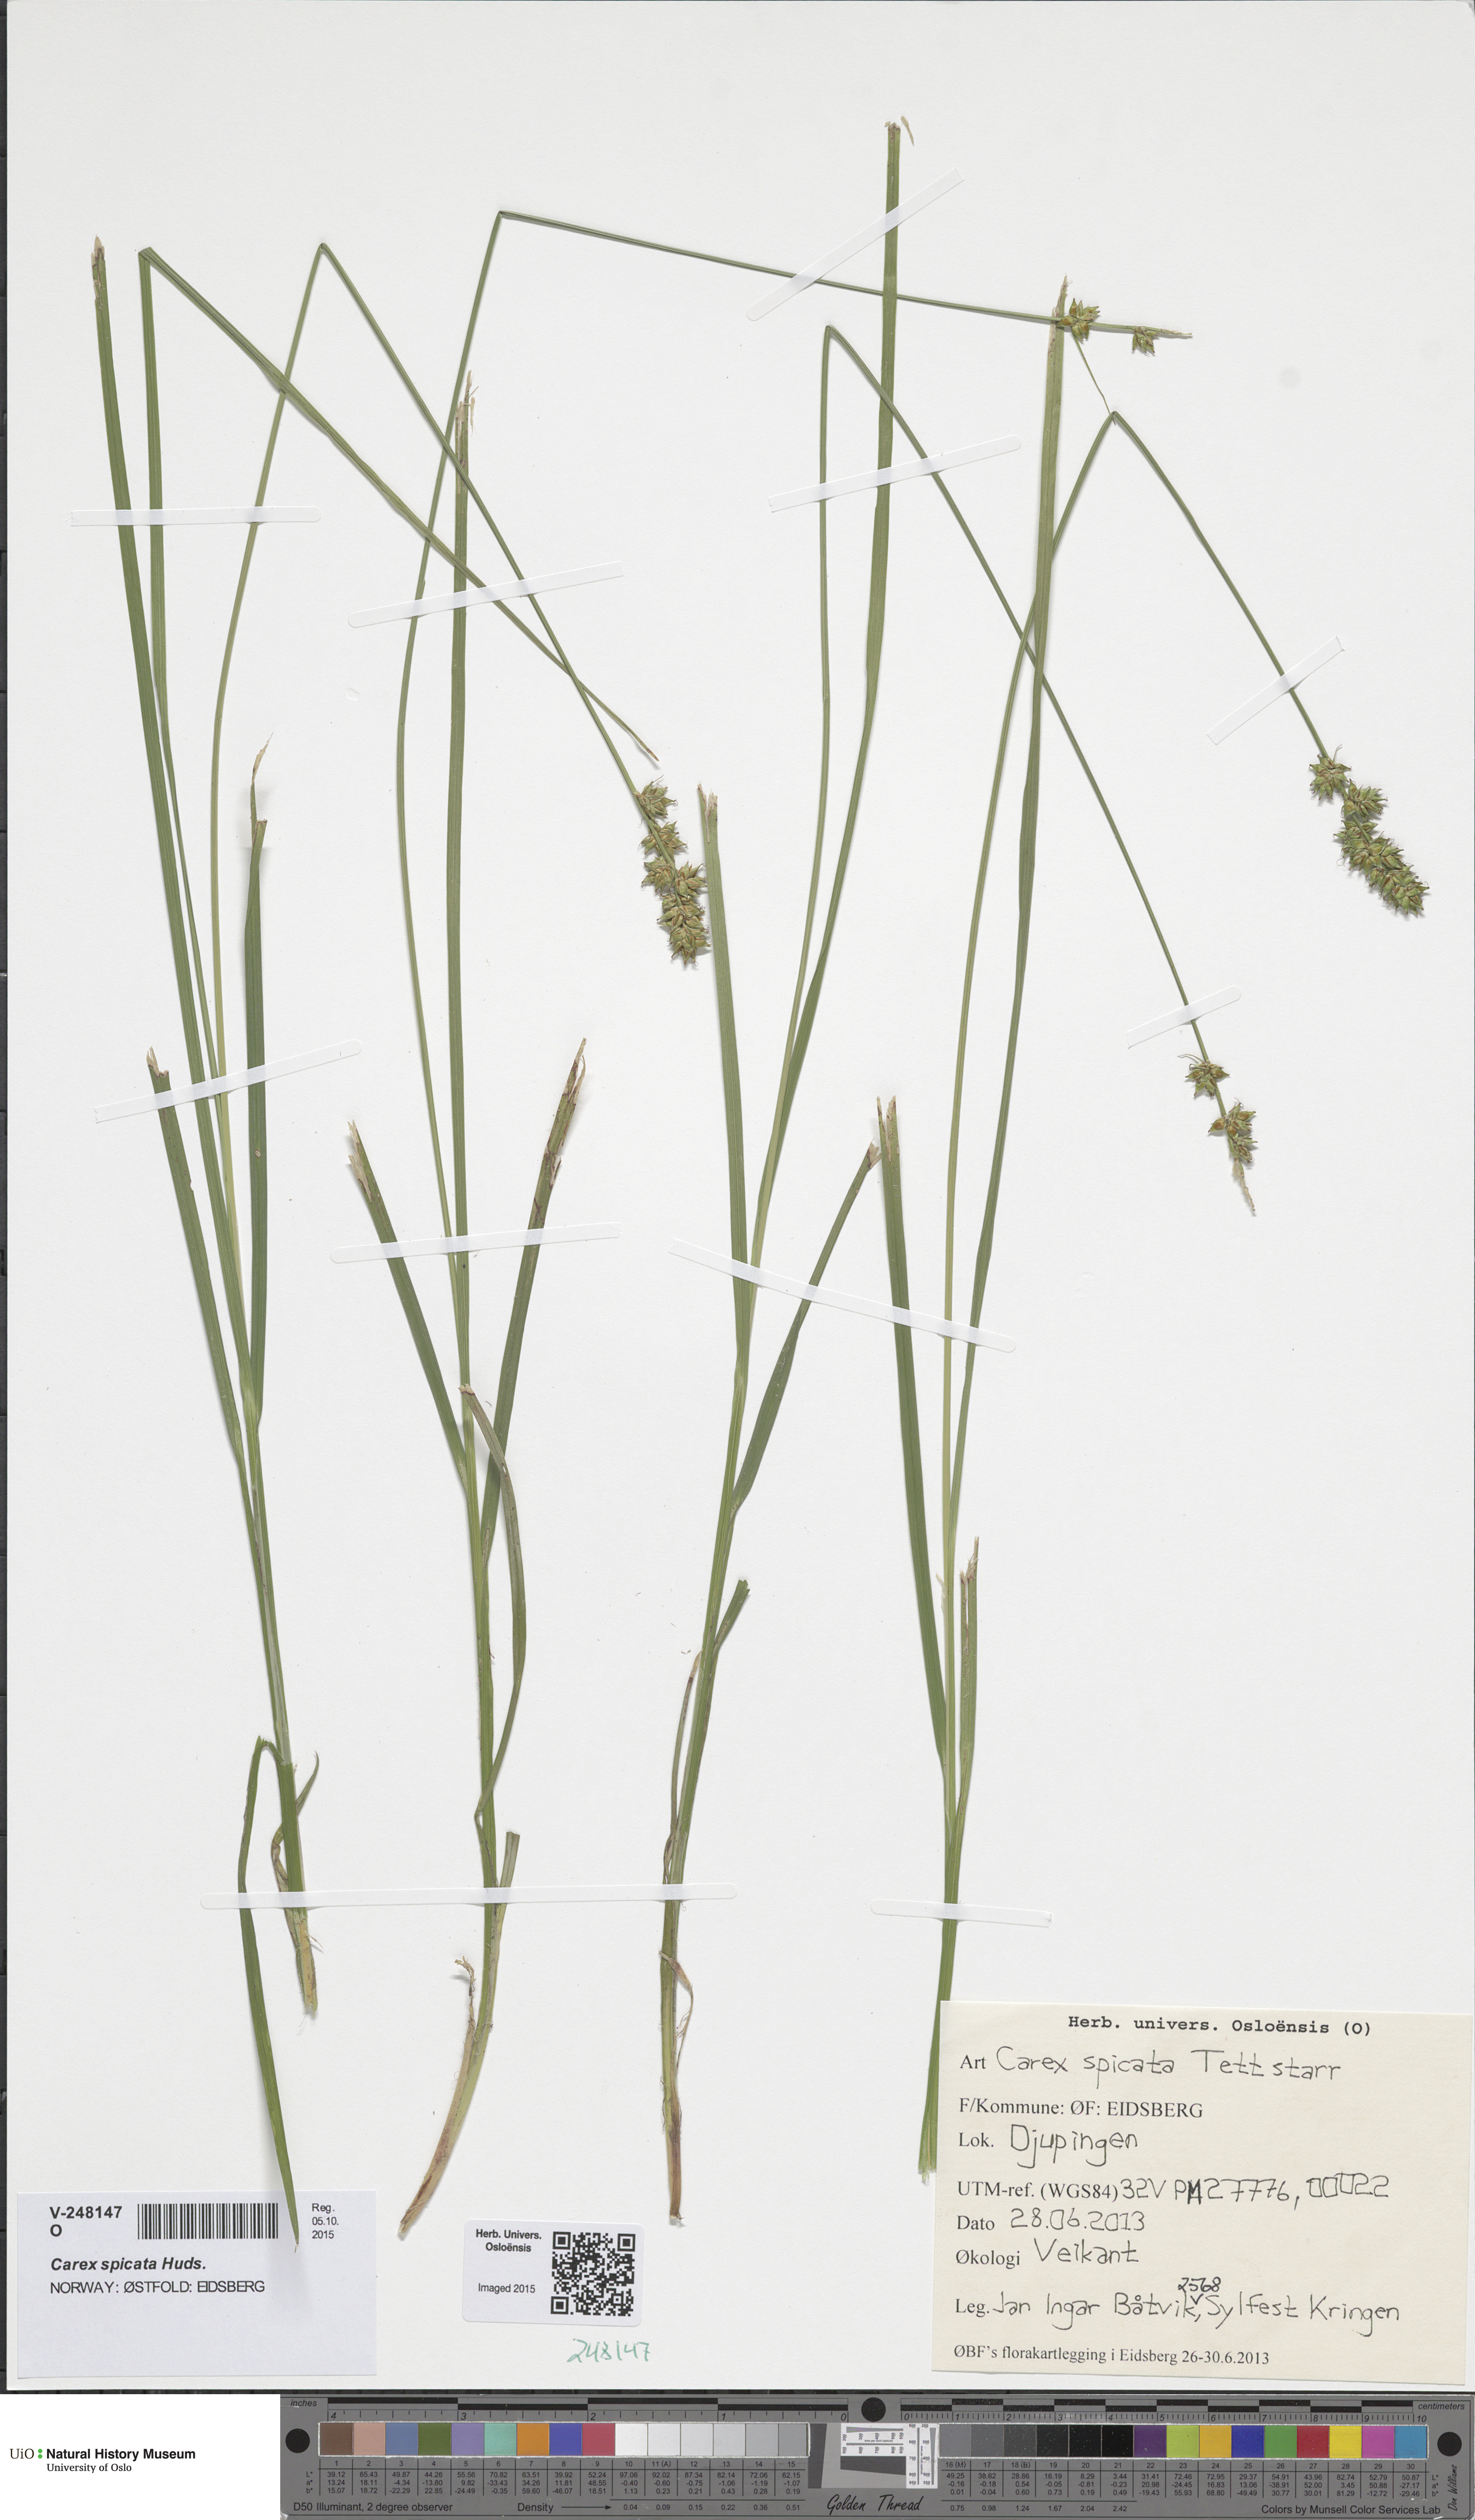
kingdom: Plantae
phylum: Tracheophyta
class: Liliopsida
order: Poales
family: Cyperaceae
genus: Carex
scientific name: Carex spicata
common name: Spiked sedge
